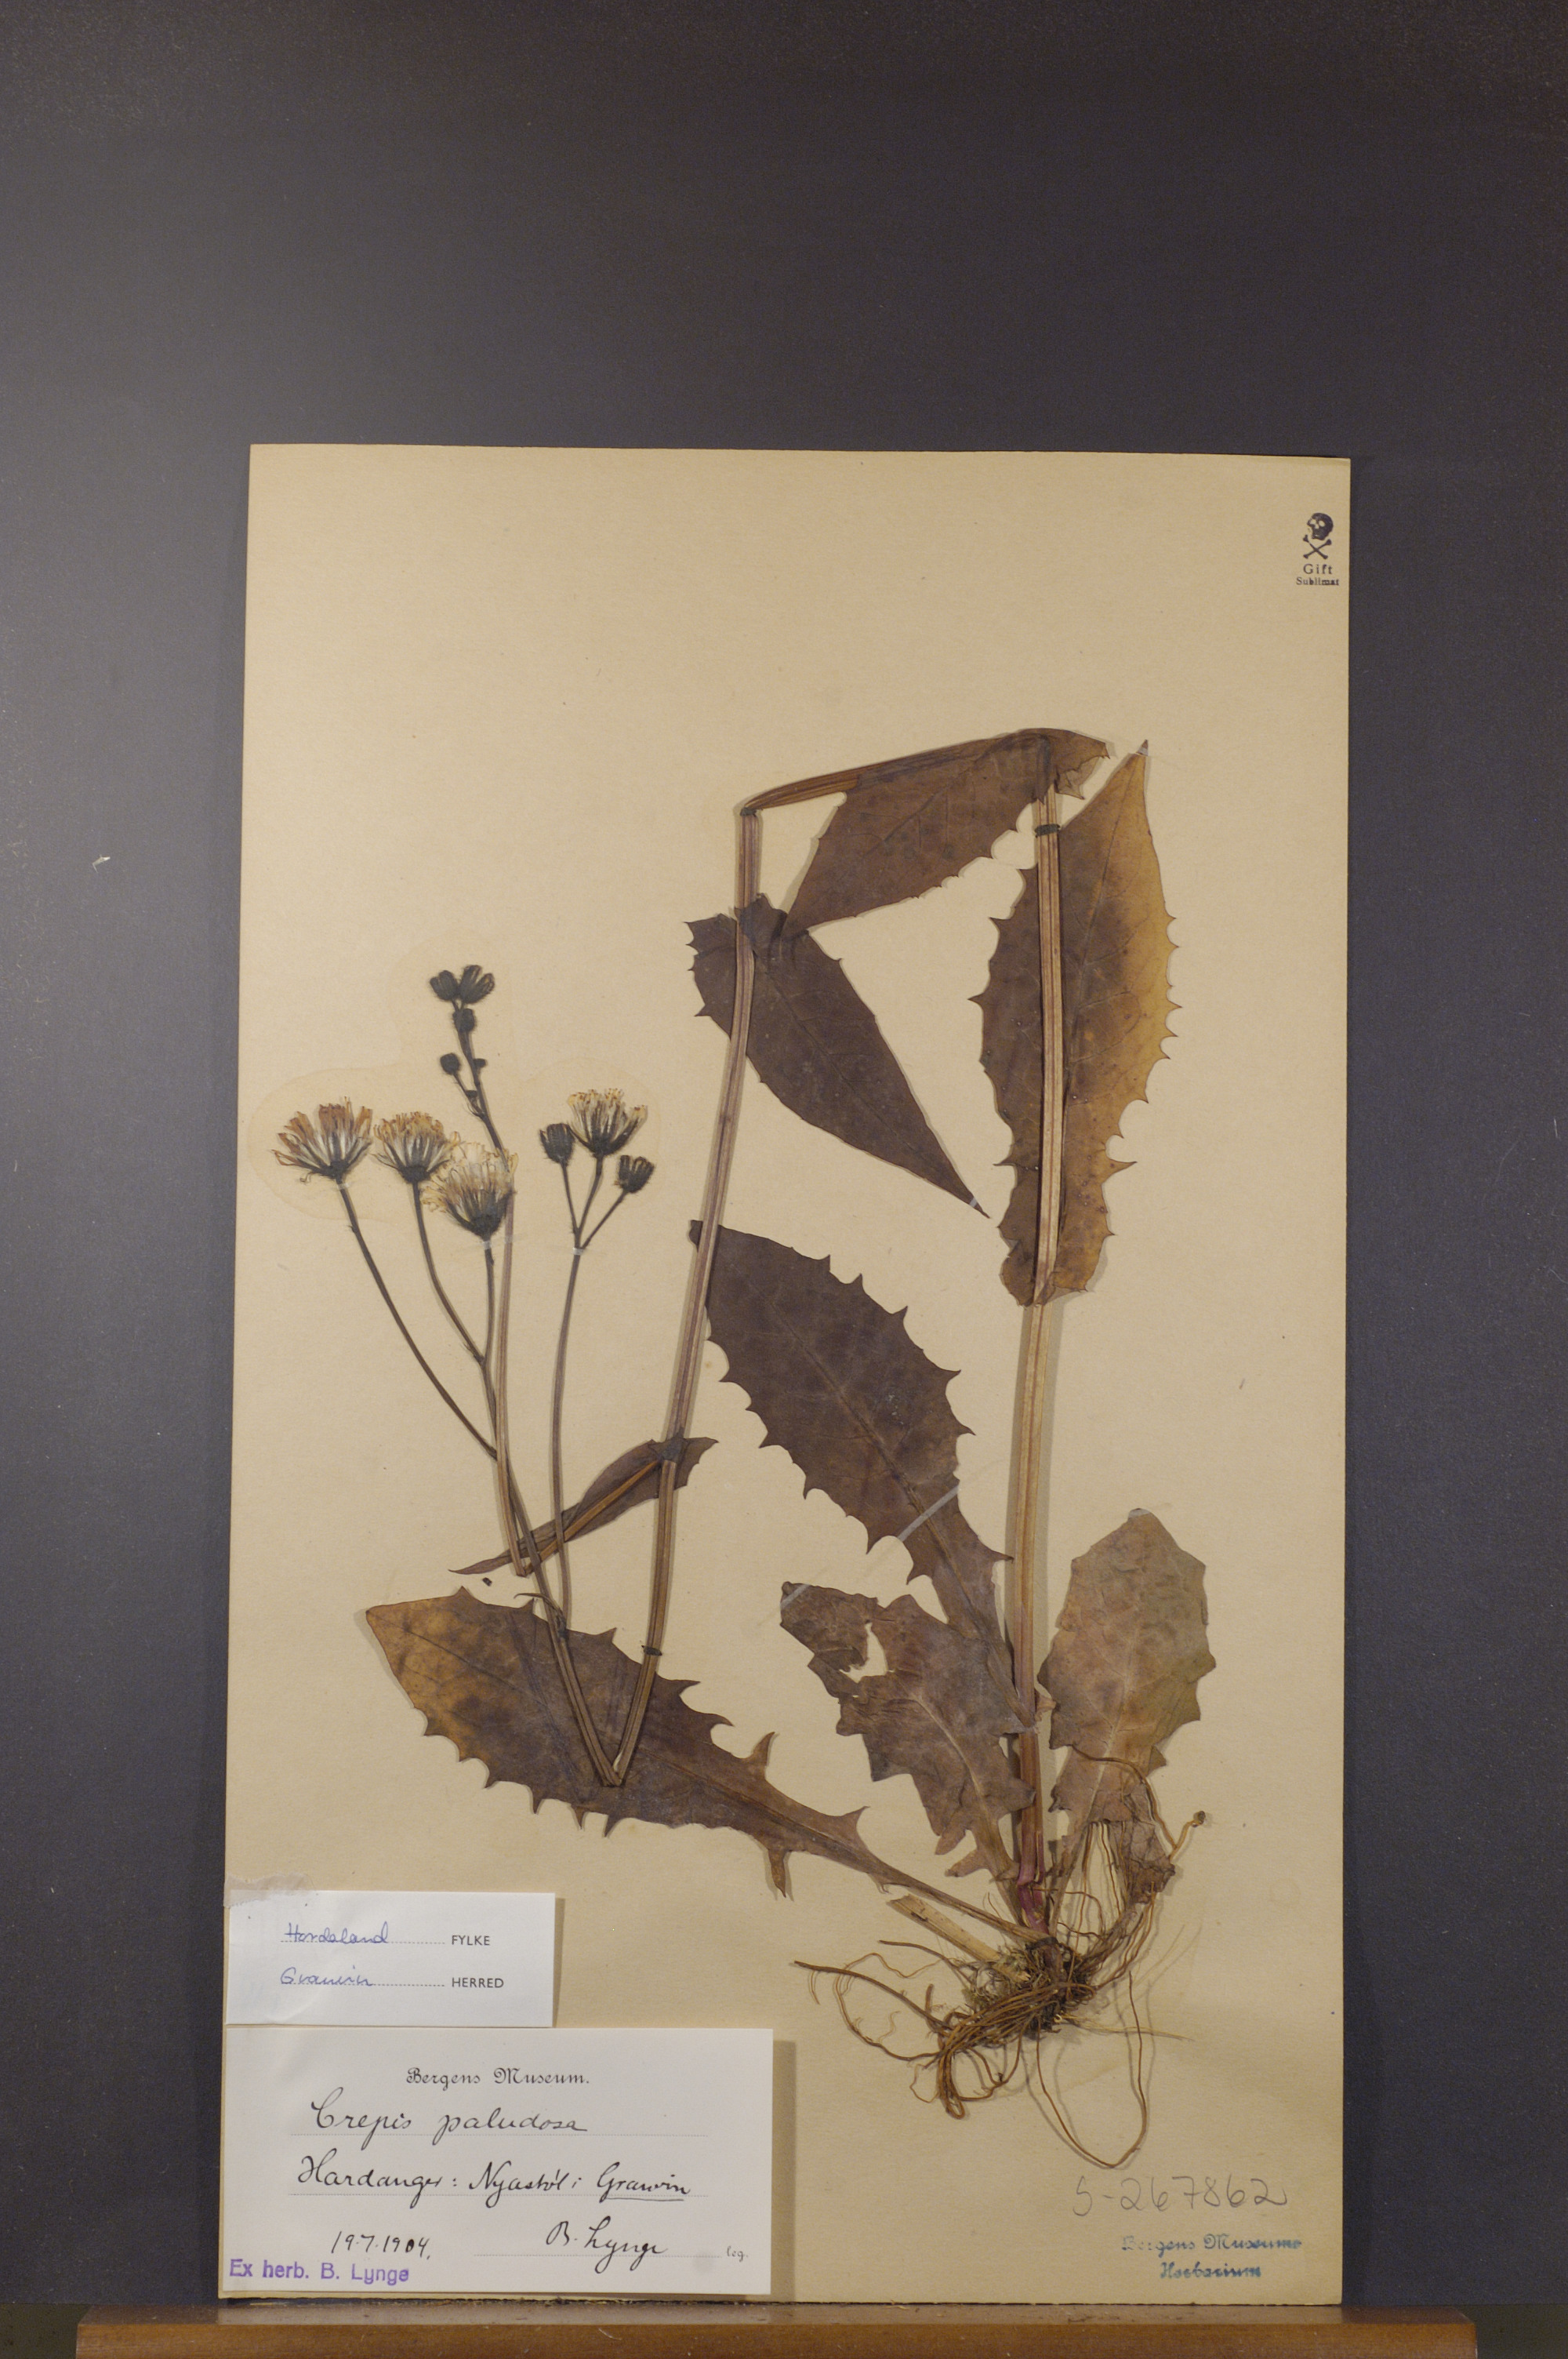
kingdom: Plantae
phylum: Tracheophyta
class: Magnoliopsida
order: Asterales
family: Asteraceae
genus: Crepis
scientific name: Crepis paludosa
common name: Marsh hawk's-beard
